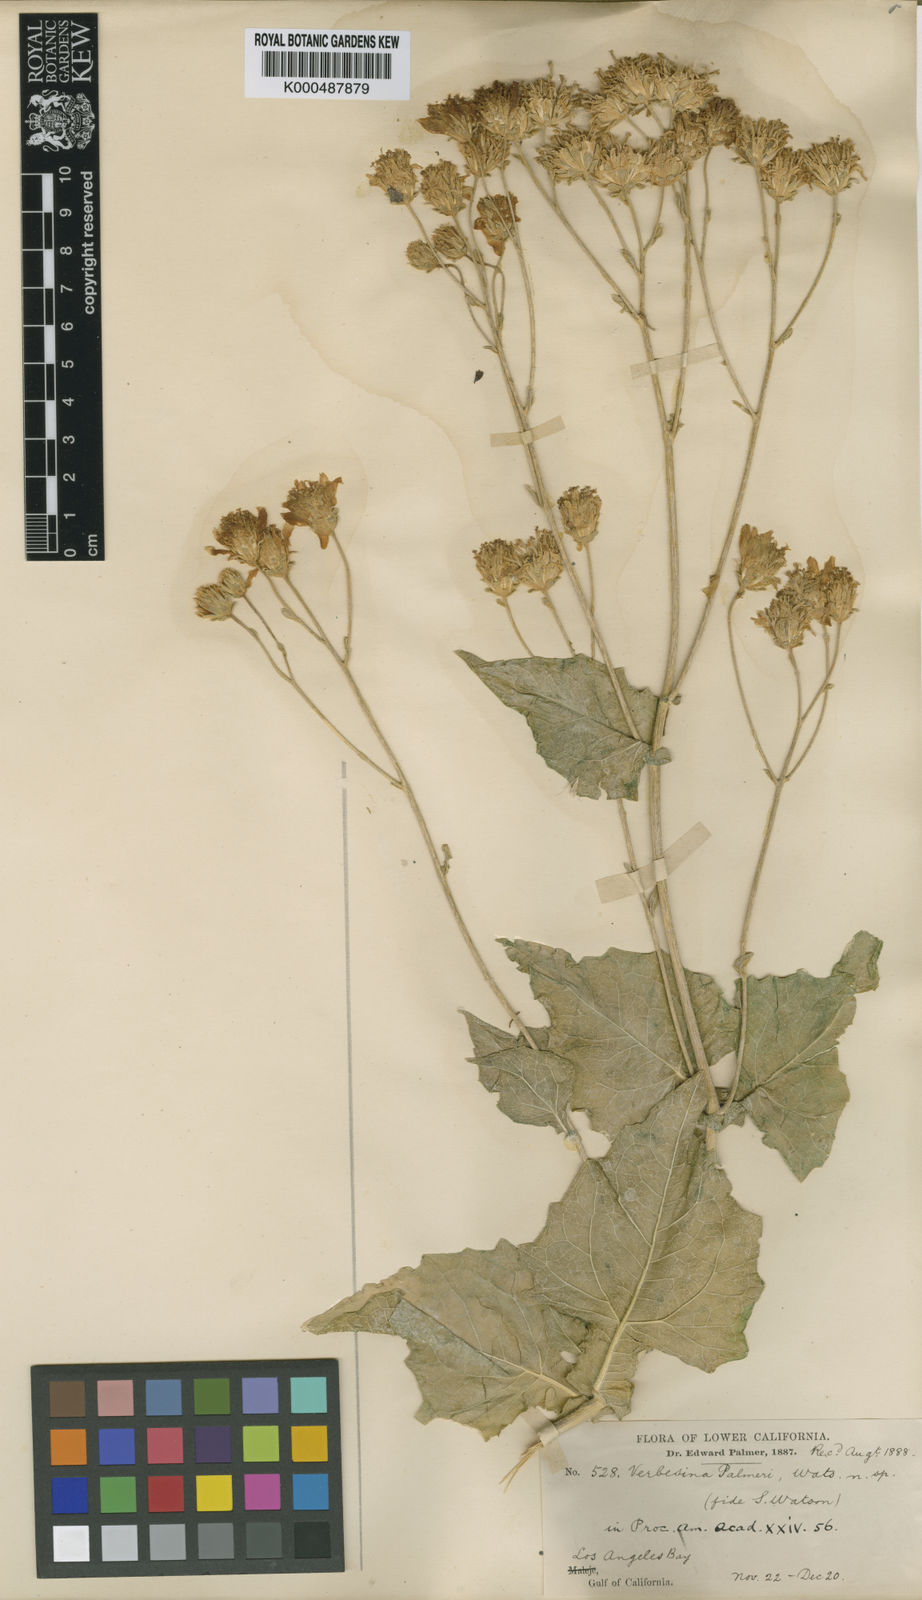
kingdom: Plantae
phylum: Tracheophyta
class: Magnoliopsida
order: Asterales
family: Asteraceae
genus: Verbesina
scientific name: Verbesina palmeri
